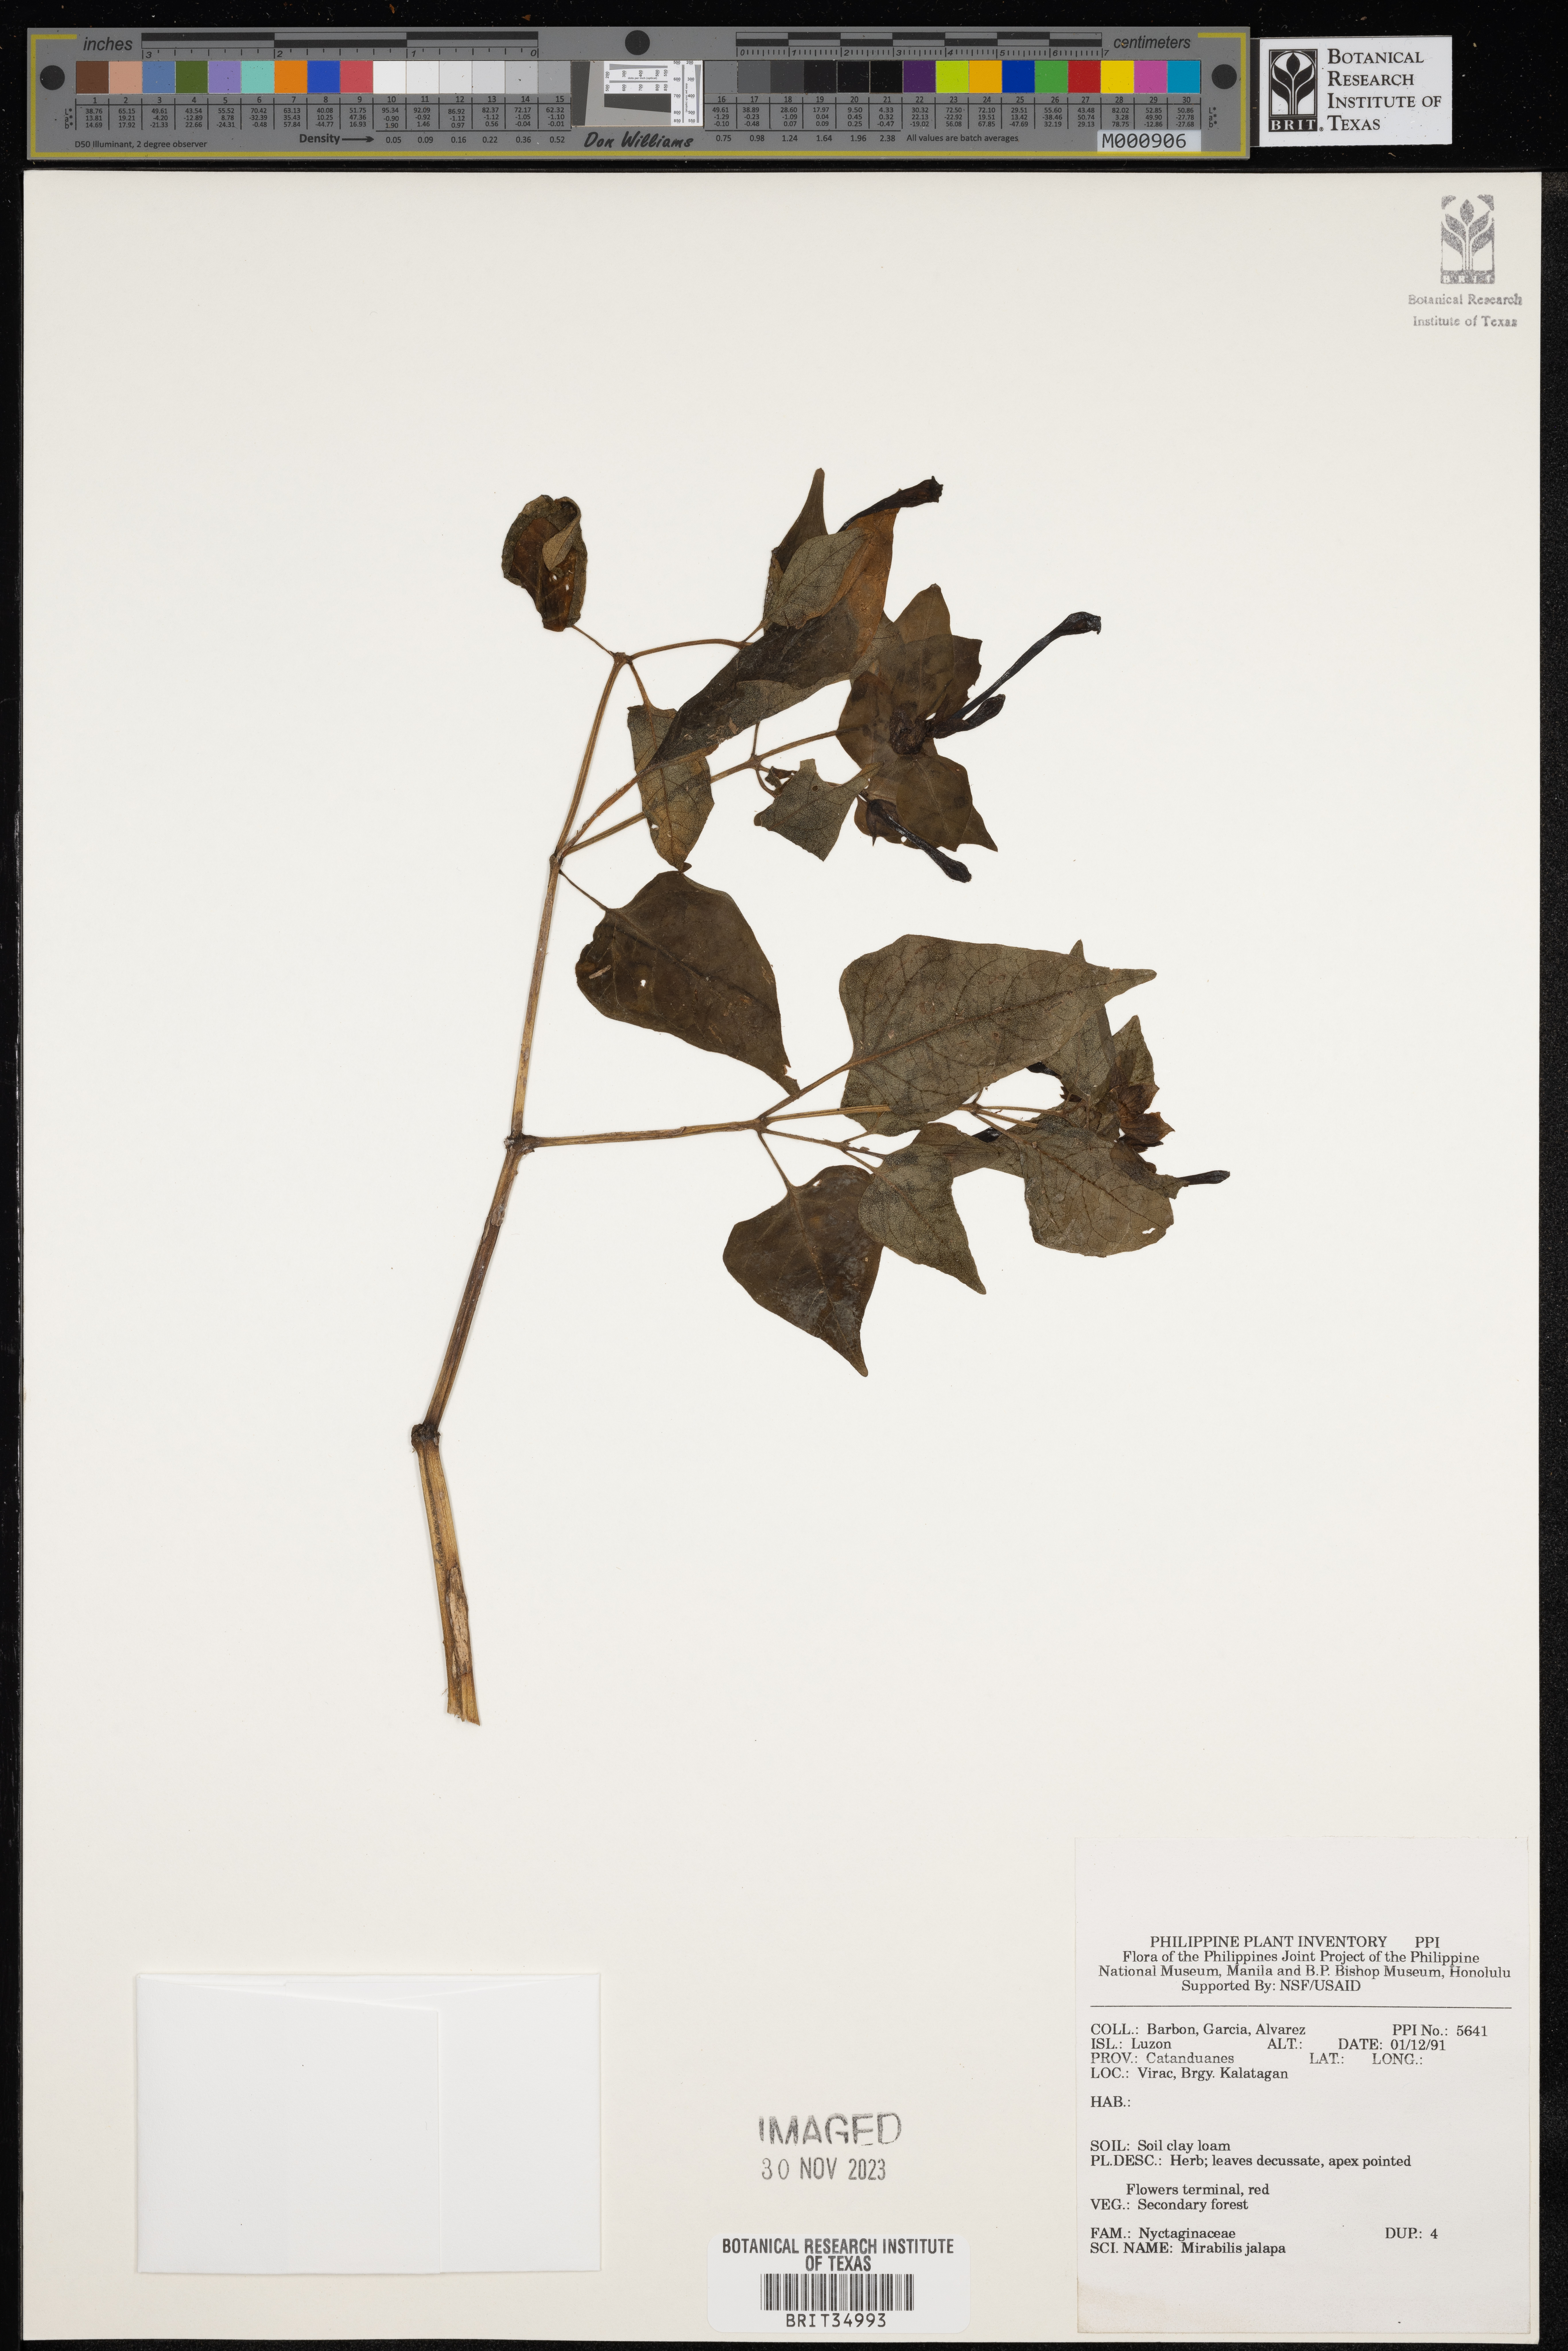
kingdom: Plantae
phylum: Tracheophyta
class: Magnoliopsida
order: Caryophyllales
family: Nyctaginaceae
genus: Mirabilis
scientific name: Mirabilis jalapa
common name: Marvel-of-peru
